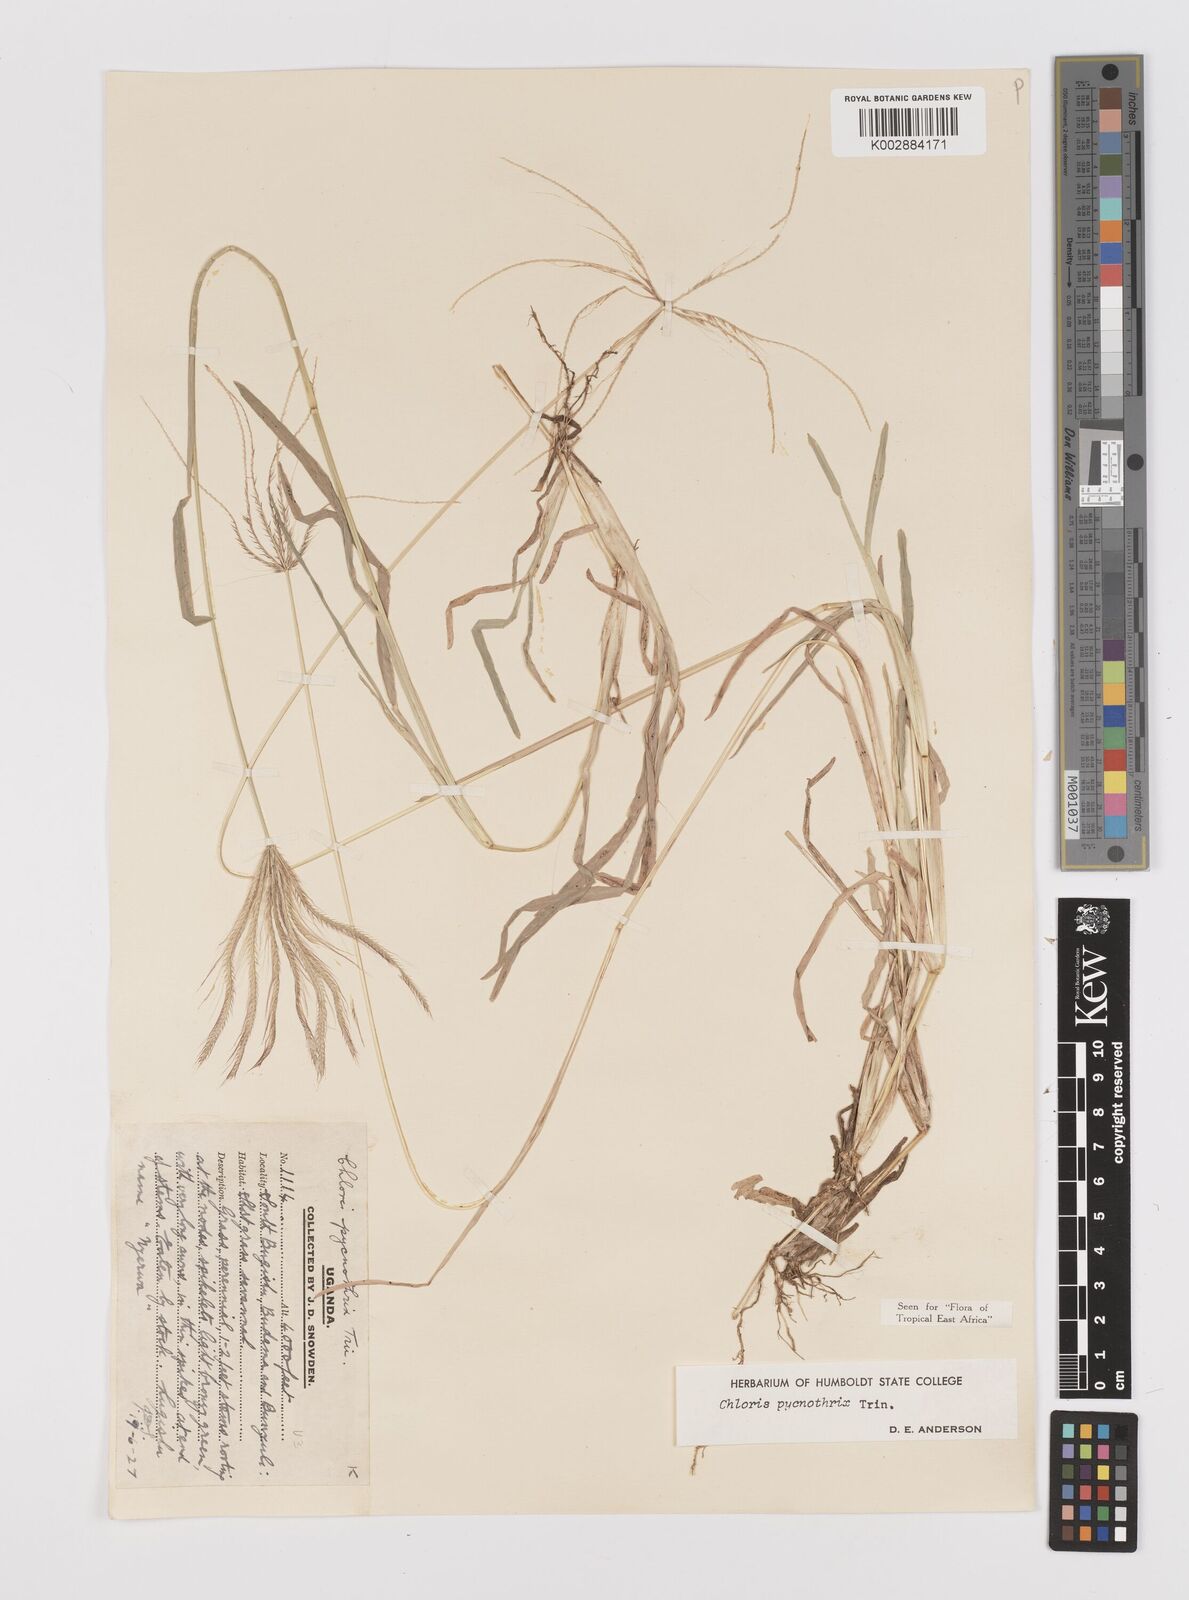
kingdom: Plantae
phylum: Tracheophyta
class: Liliopsida
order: Poales
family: Poaceae
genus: Chloris
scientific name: Chloris pycnothrix
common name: Spiderweb chloris
